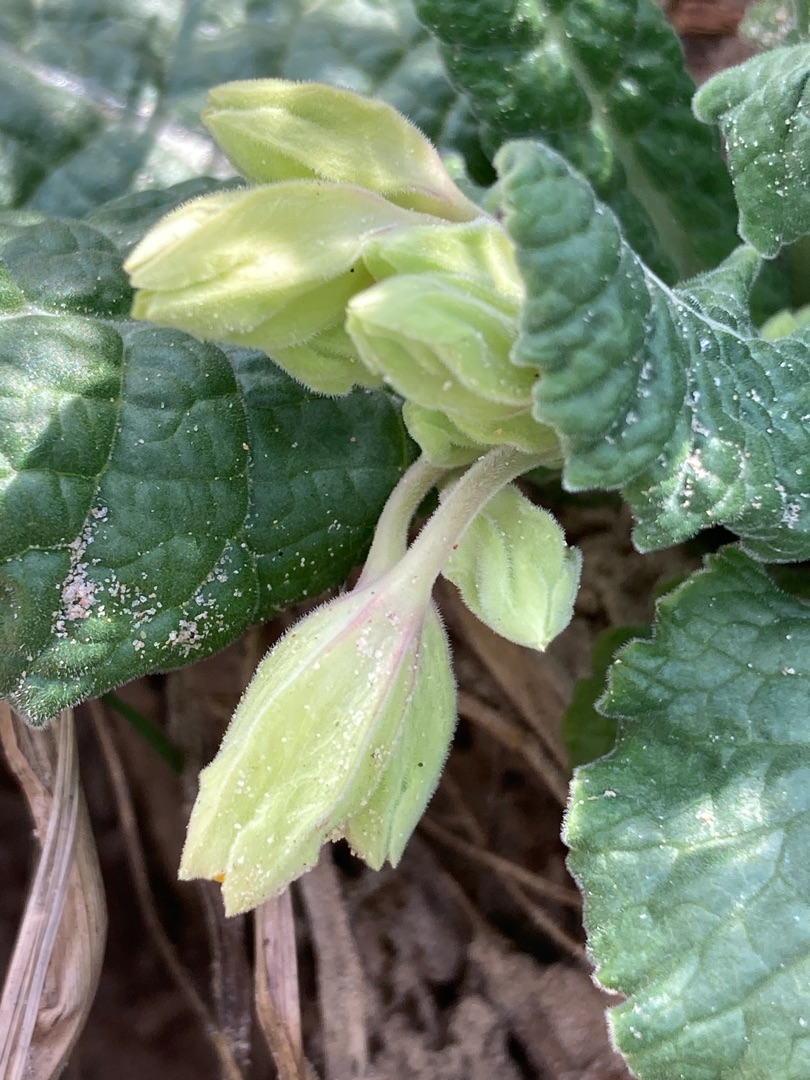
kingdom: Plantae
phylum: Tracheophyta
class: Magnoliopsida
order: Ericales
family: Primulaceae
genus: Primula
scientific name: Primula veris
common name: Hulkravet kodriver
